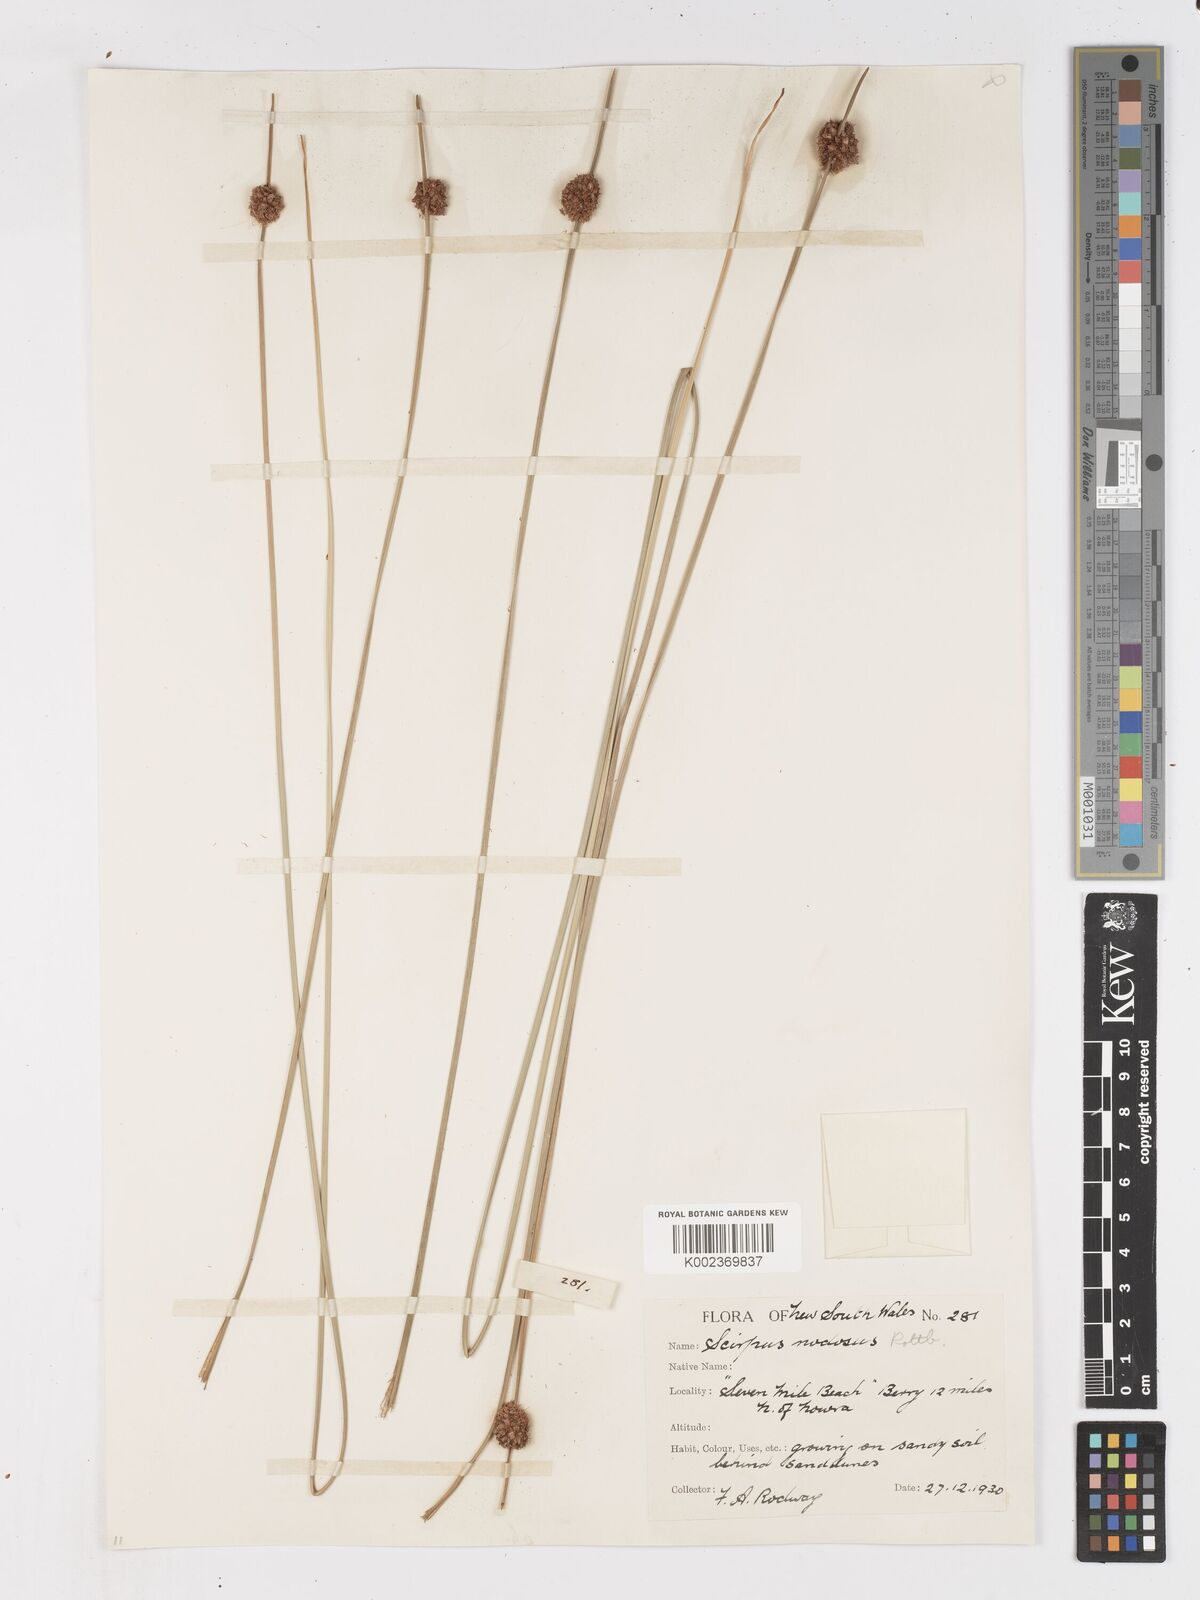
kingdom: Plantae
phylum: Tracheophyta
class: Liliopsida
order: Poales
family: Cyperaceae
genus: Ficinia
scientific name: Ficinia nodosa
